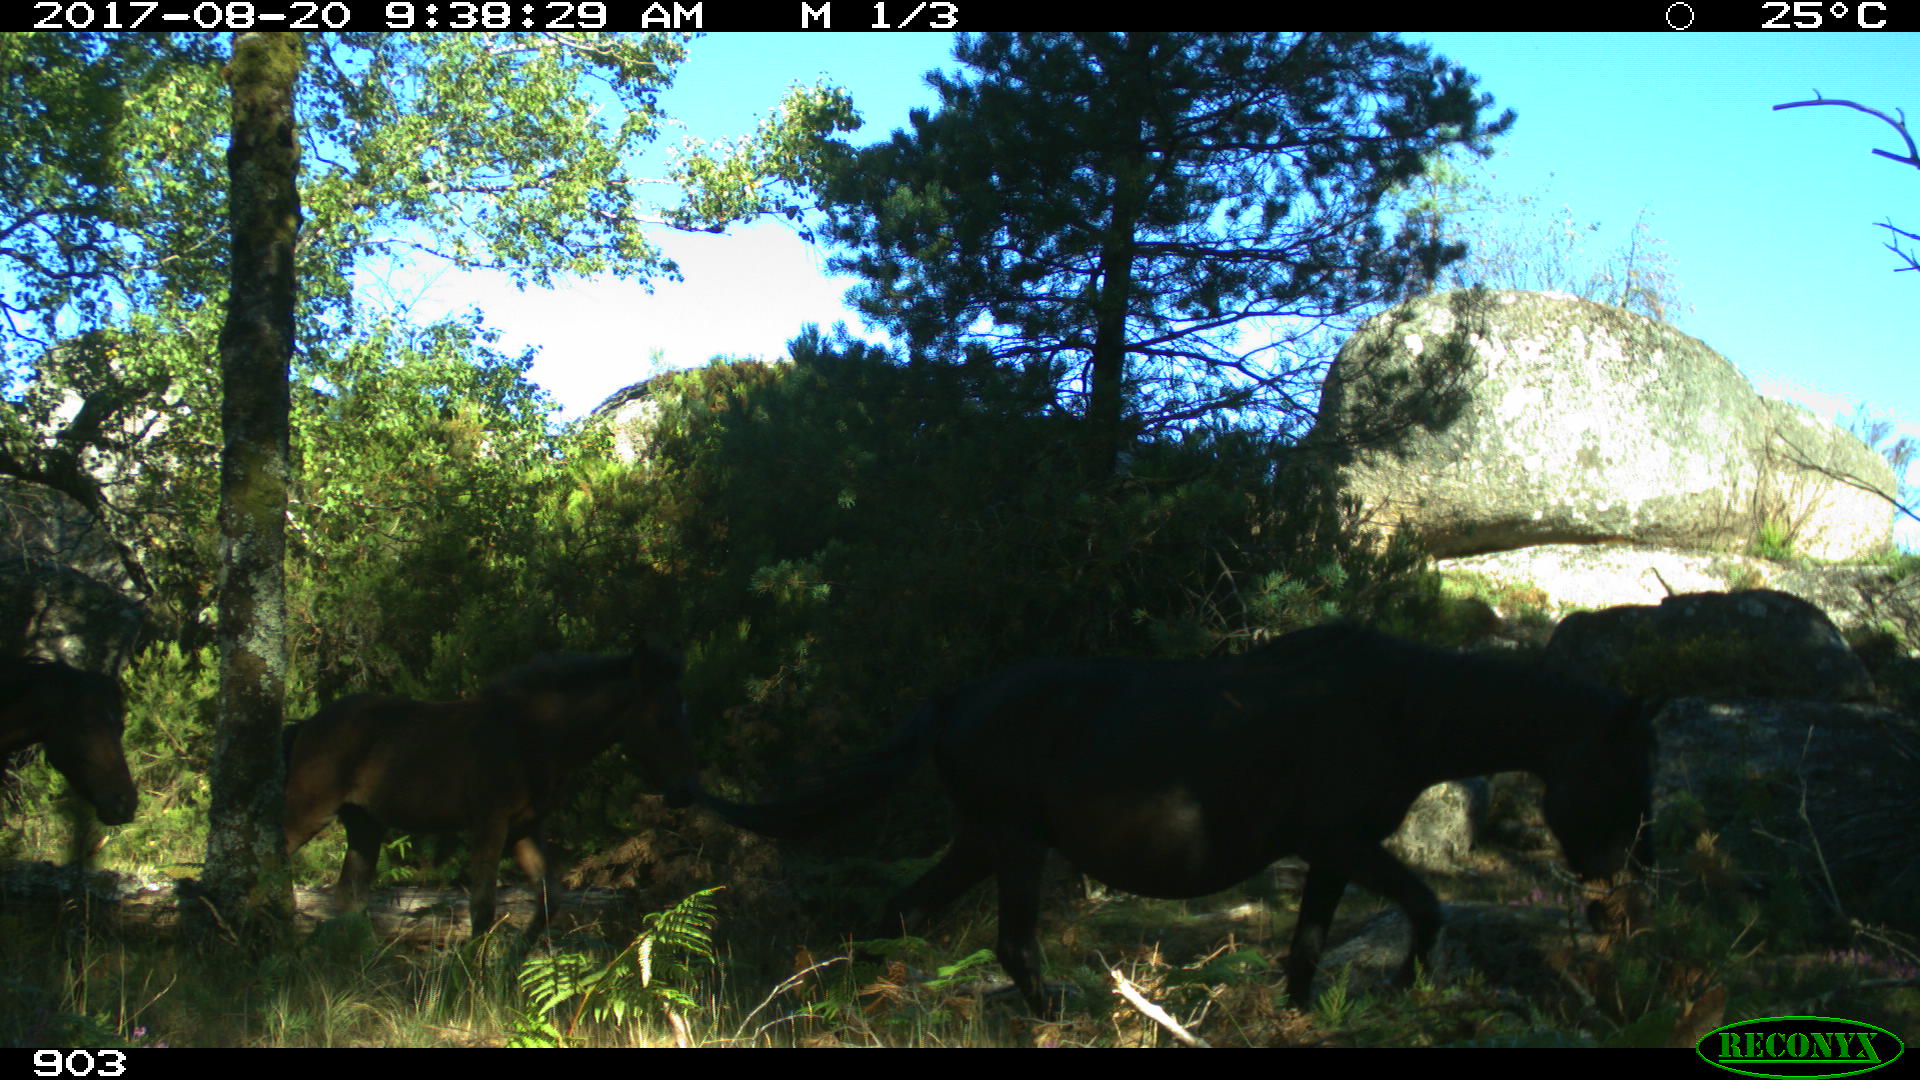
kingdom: Animalia
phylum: Chordata
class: Mammalia
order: Perissodactyla
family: Equidae
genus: Equus
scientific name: Equus caballus
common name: Horse
